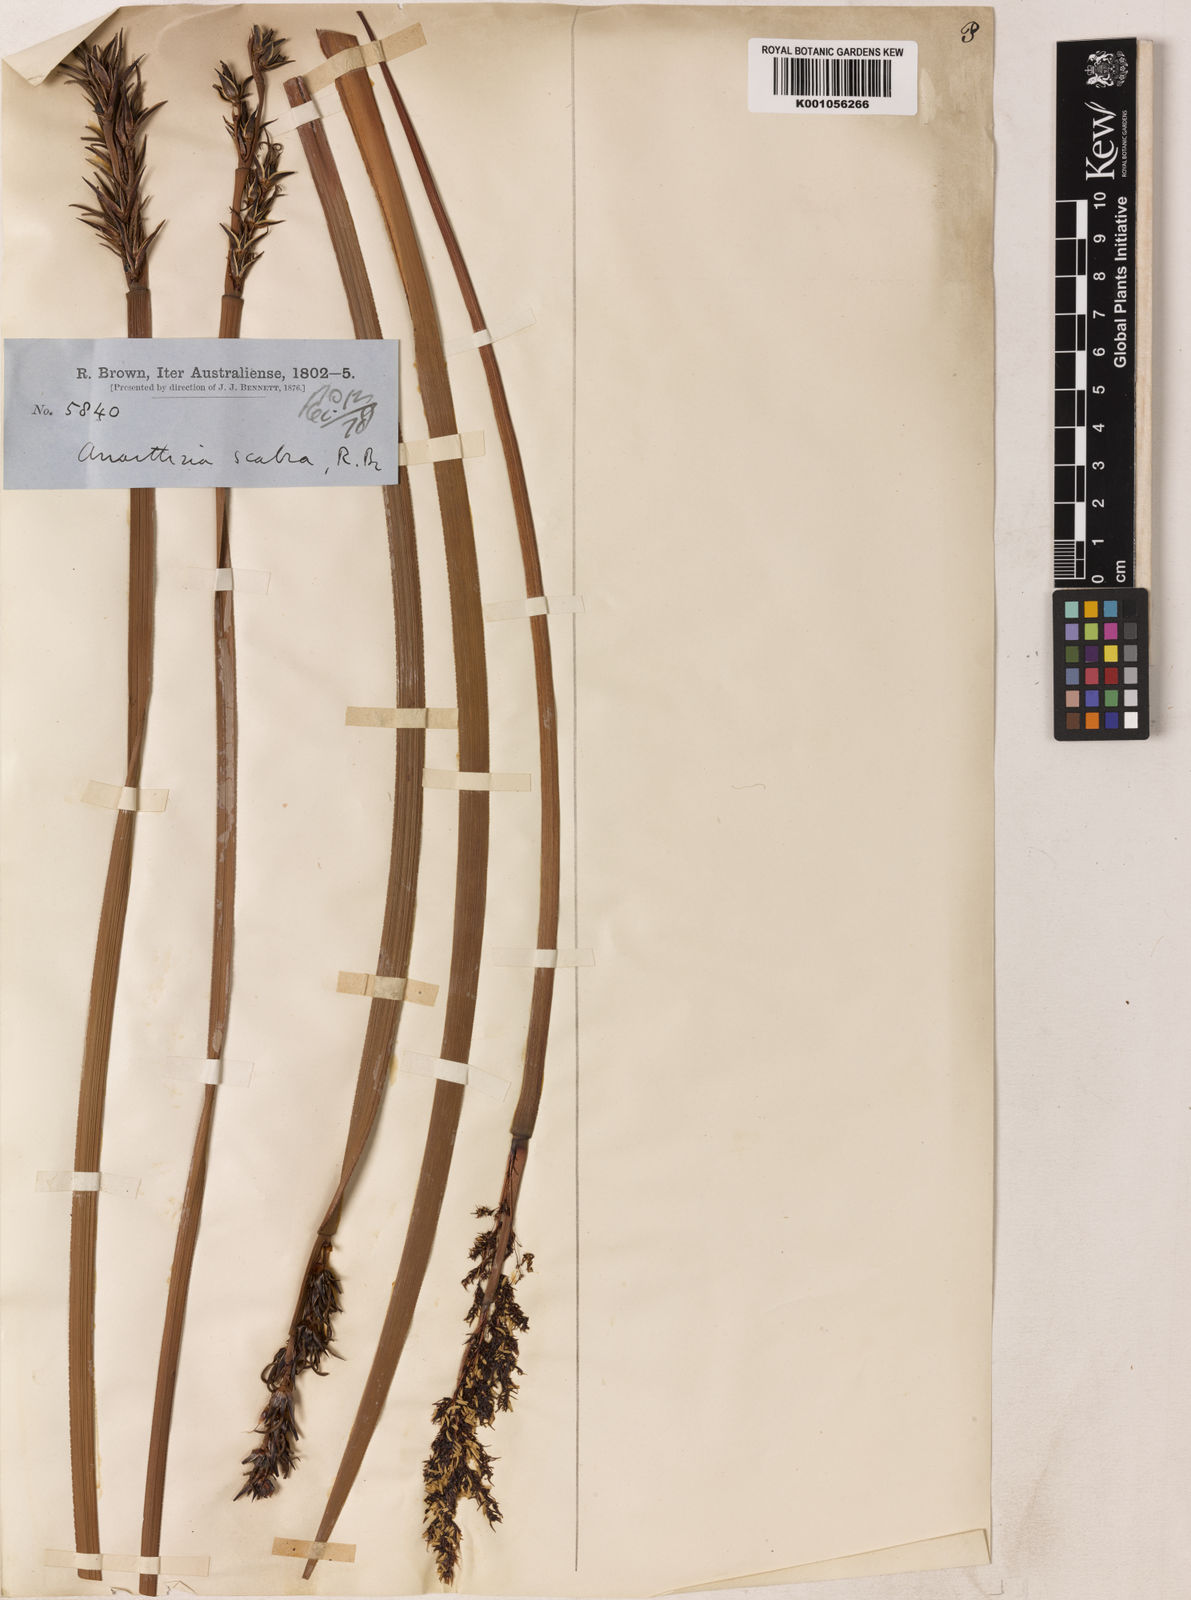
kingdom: Plantae
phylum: Tracheophyta
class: Liliopsida
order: Poales
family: Restionaceae
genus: Anarthria
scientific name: Anarthria scabra
